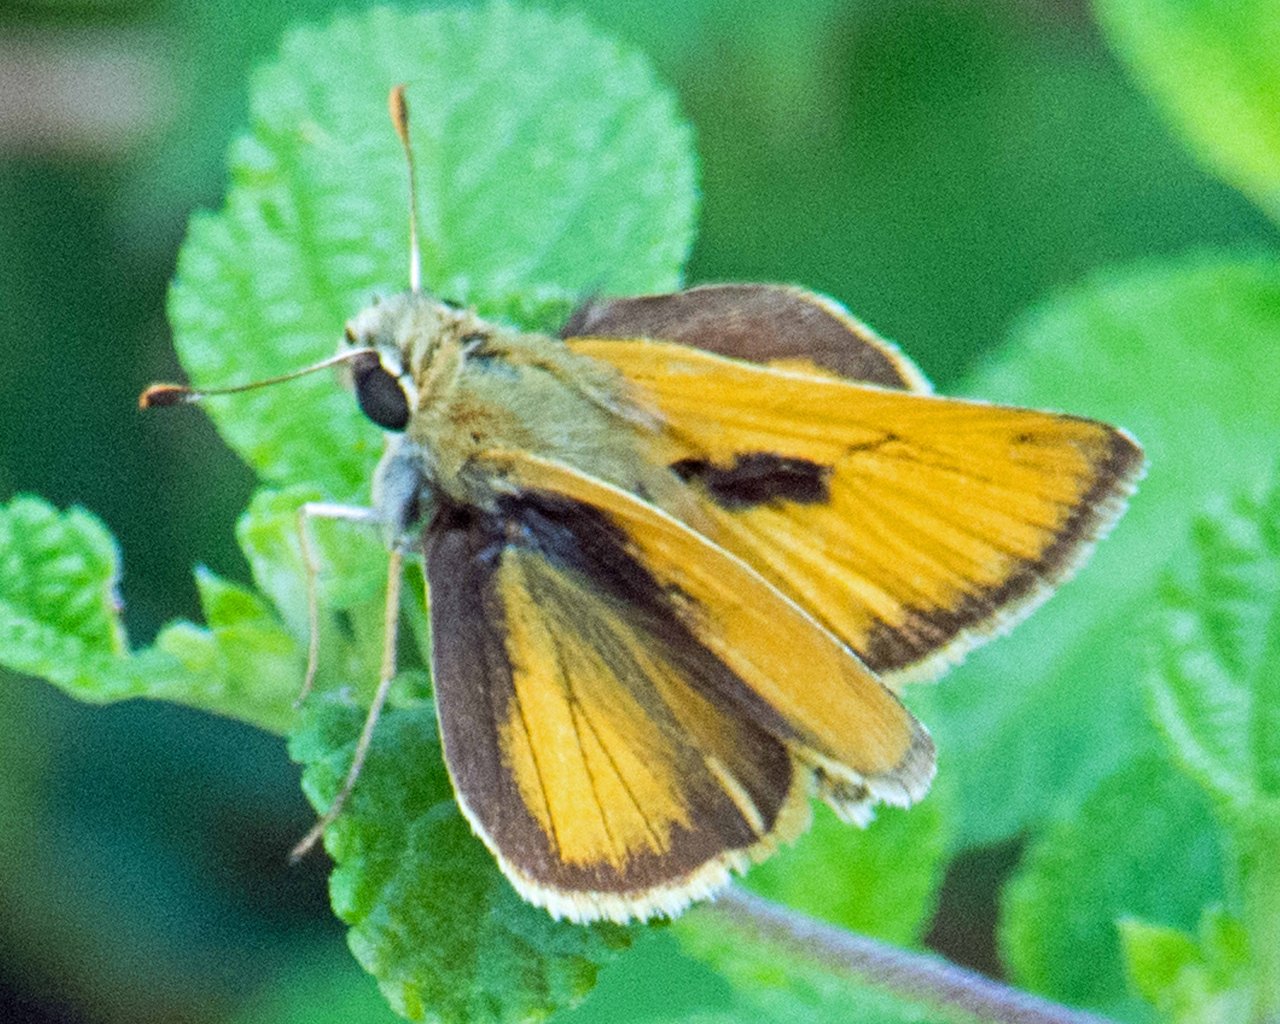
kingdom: Animalia
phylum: Arthropoda
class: Insecta
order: Lepidoptera
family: Hesperiidae
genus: Polites
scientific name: Polites vibex
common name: Whirlabout
